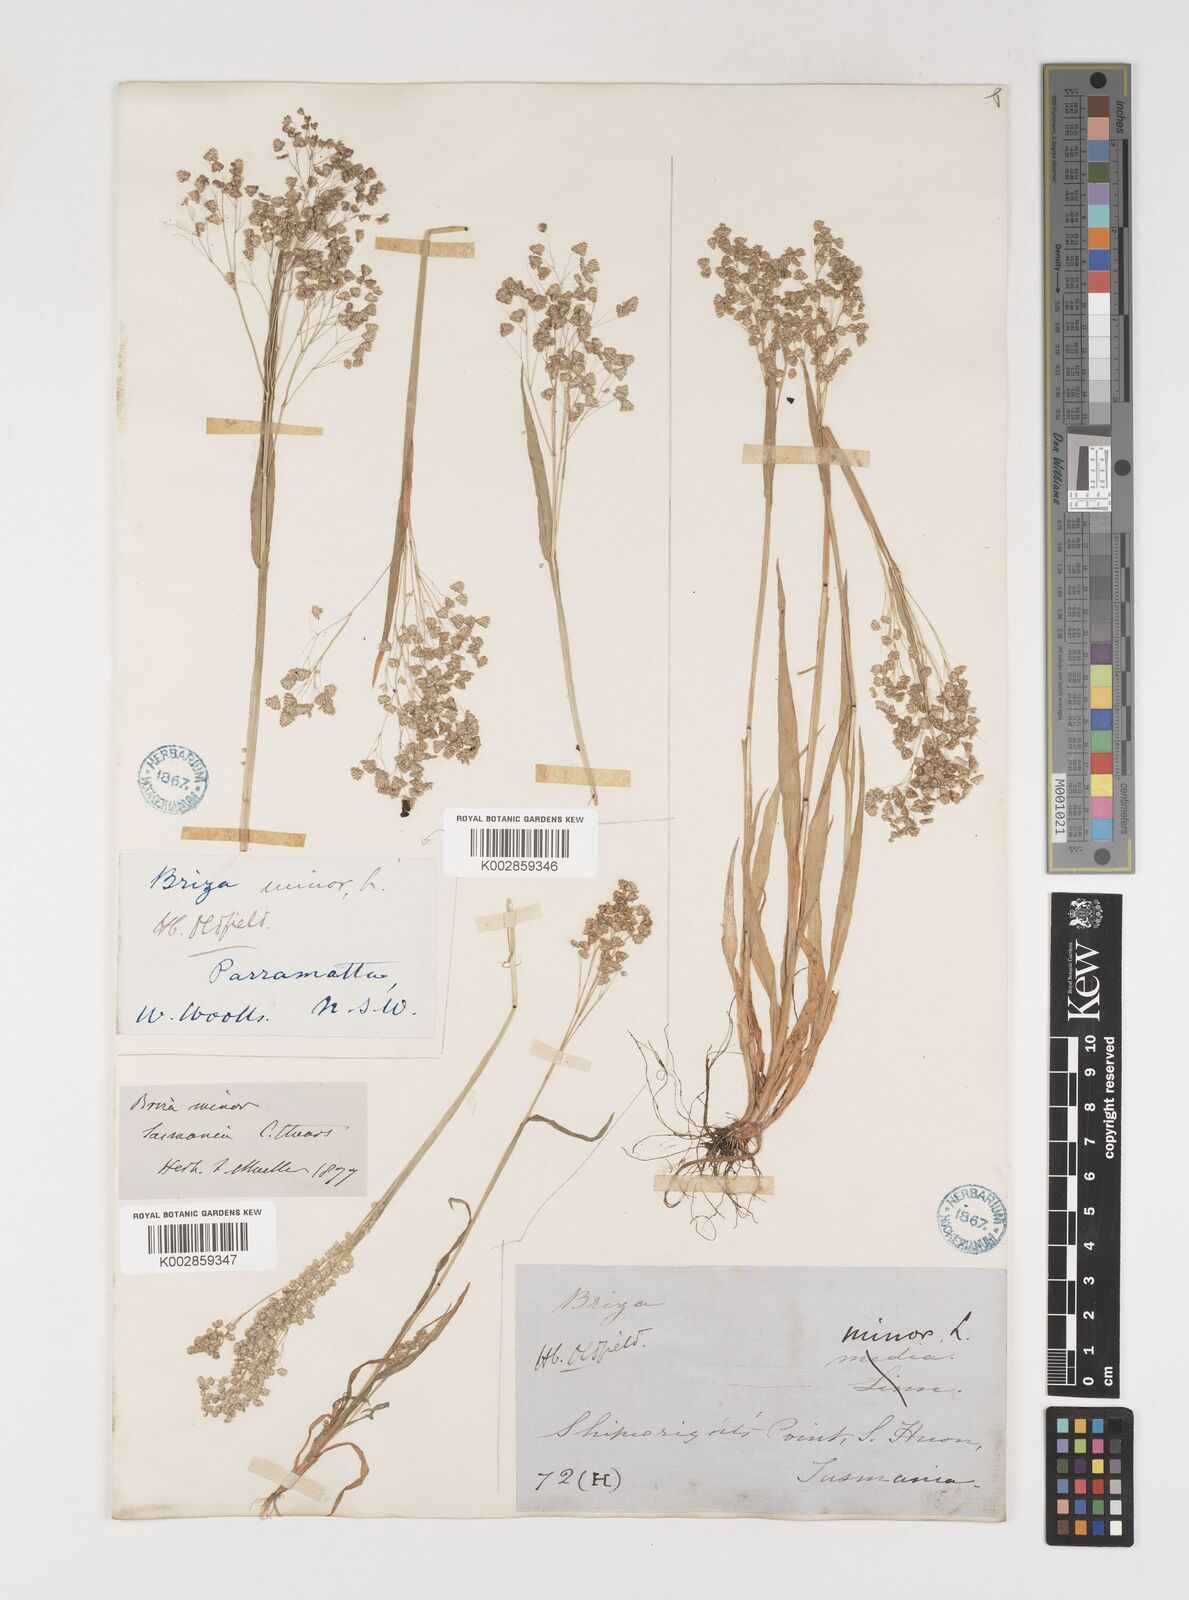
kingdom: Plantae
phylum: Tracheophyta
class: Liliopsida
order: Poales
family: Poaceae
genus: Briza
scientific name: Briza minor
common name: Lesser quaking-grass
